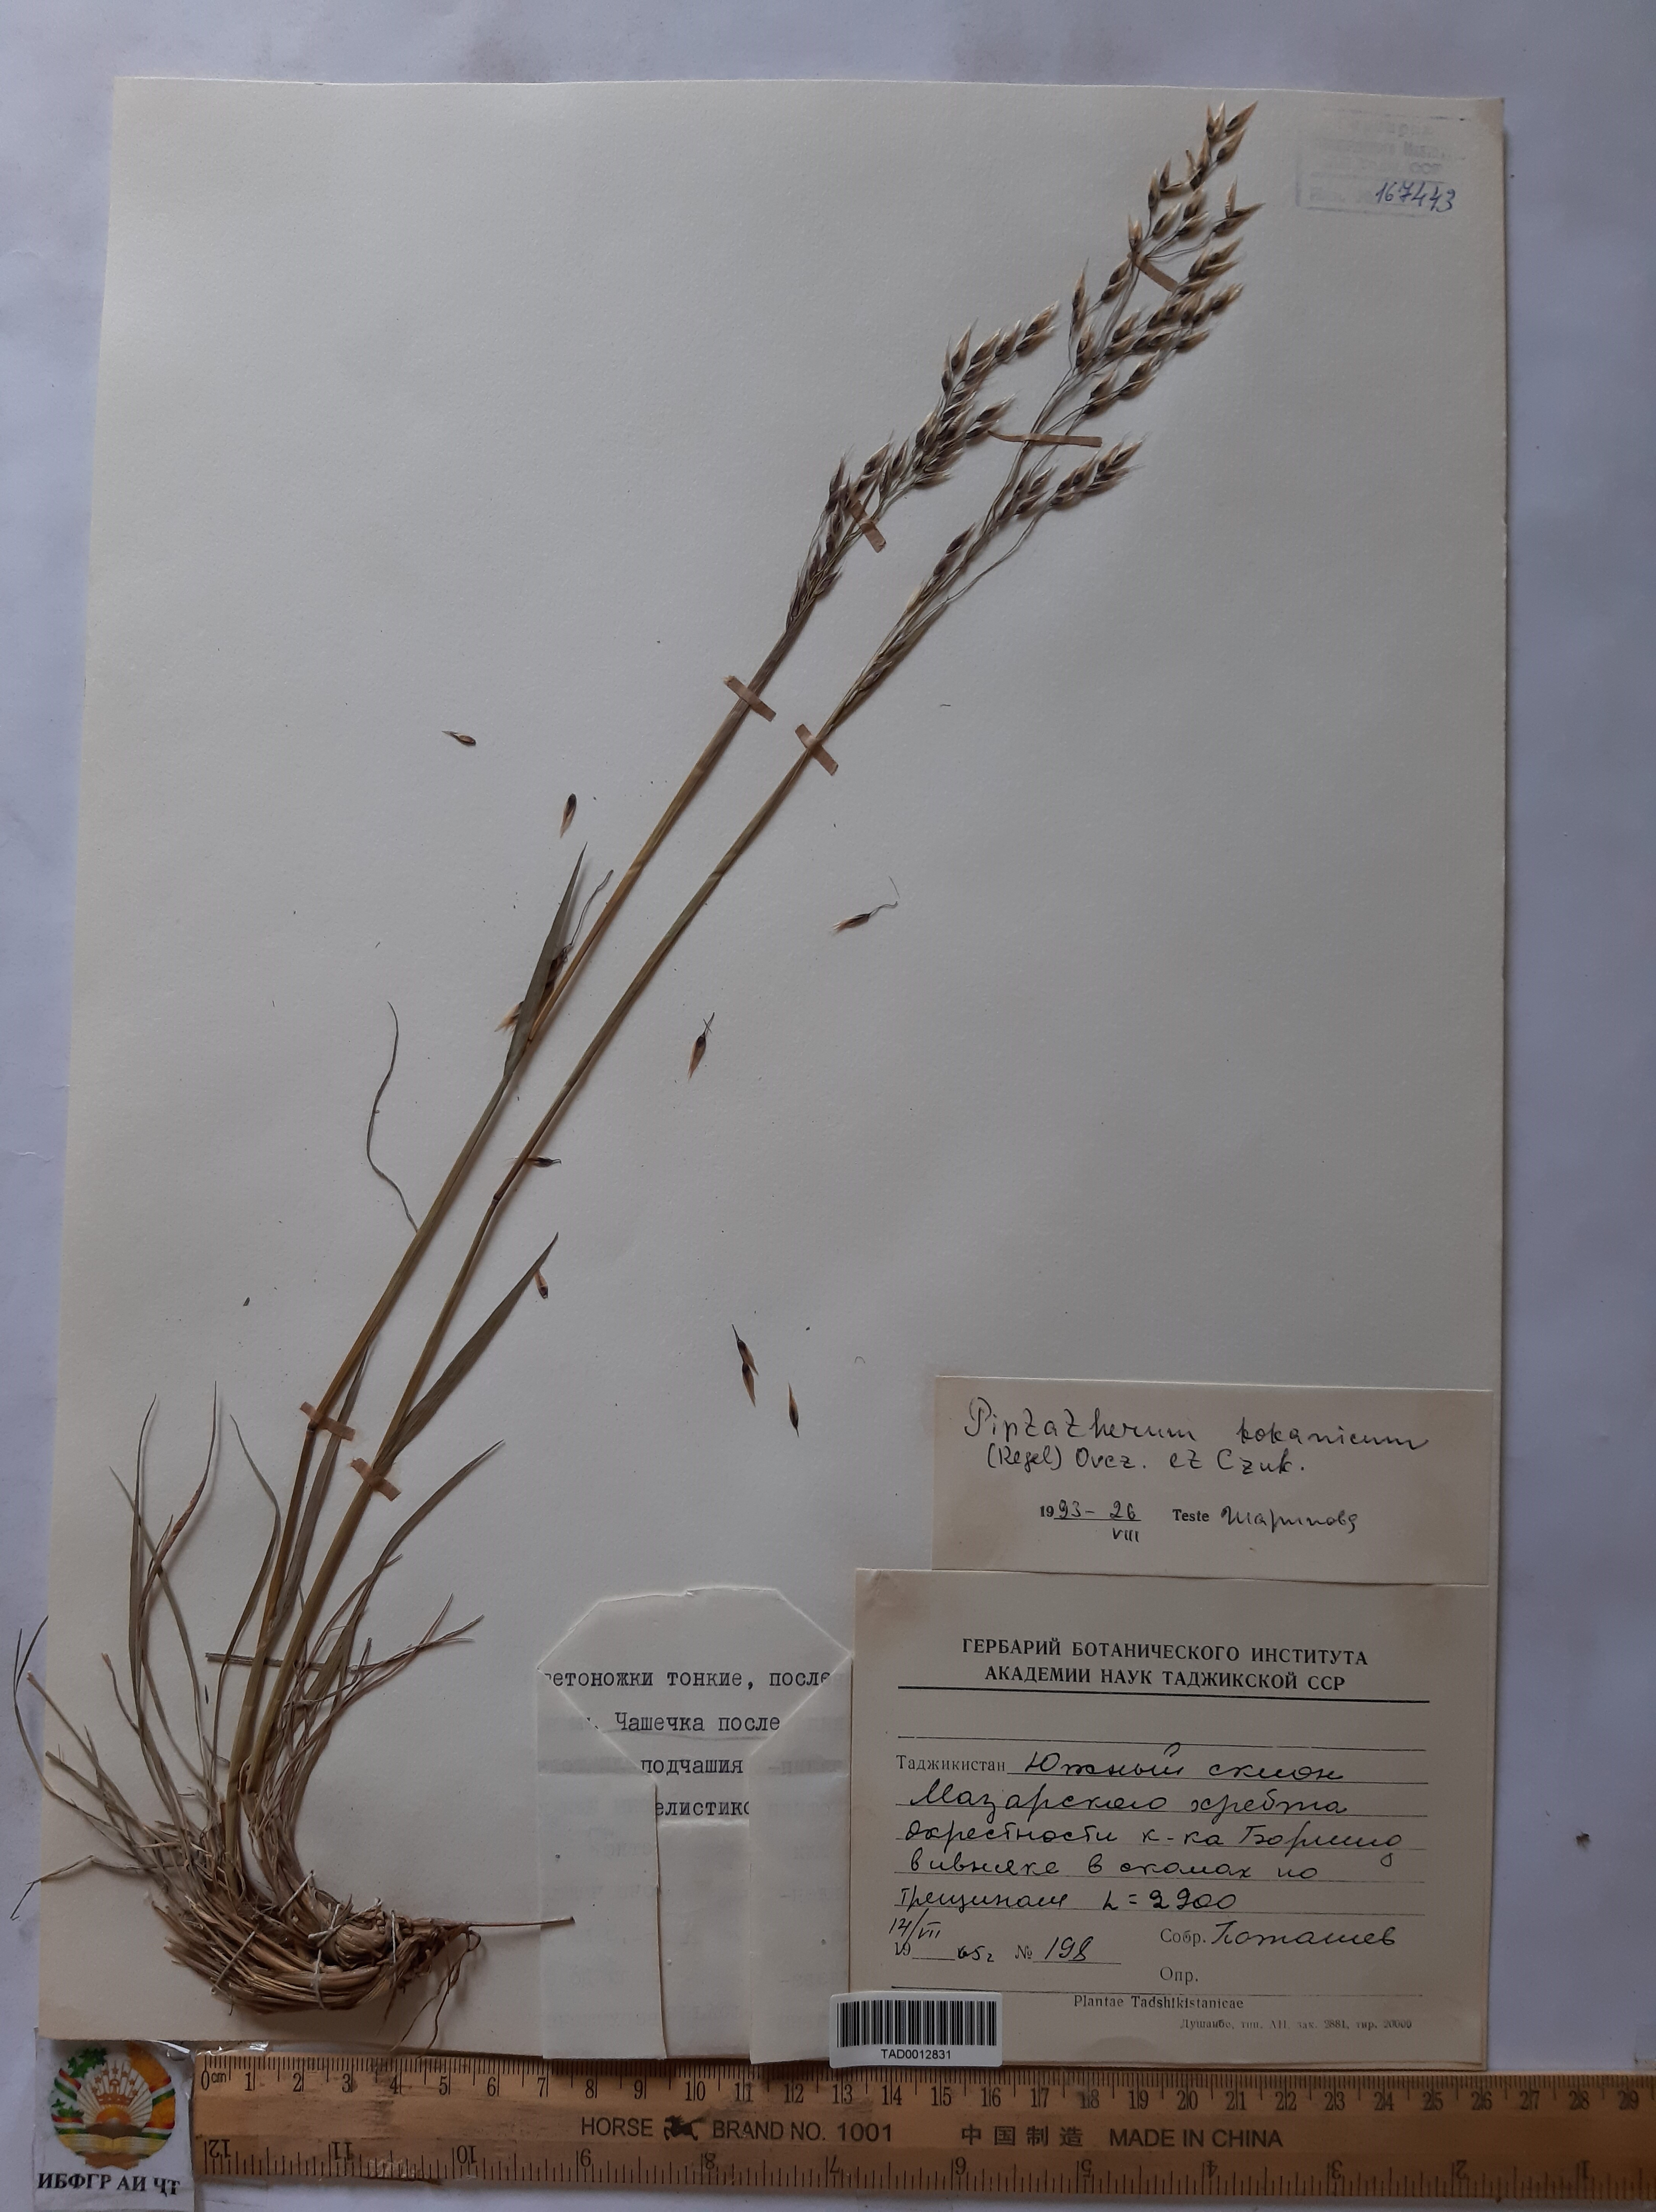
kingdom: Plantae
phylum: Tracheophyta
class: Liliopsida
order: Poales
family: Poaceae
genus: Piptatherum
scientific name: Piptatherum songaricum
